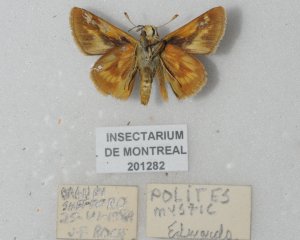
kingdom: Animalia
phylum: Arthropoda
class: Insecta
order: Lepidoptera
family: Hesperiidae
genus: Polites
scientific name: Polites
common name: Long Dash Skipper
